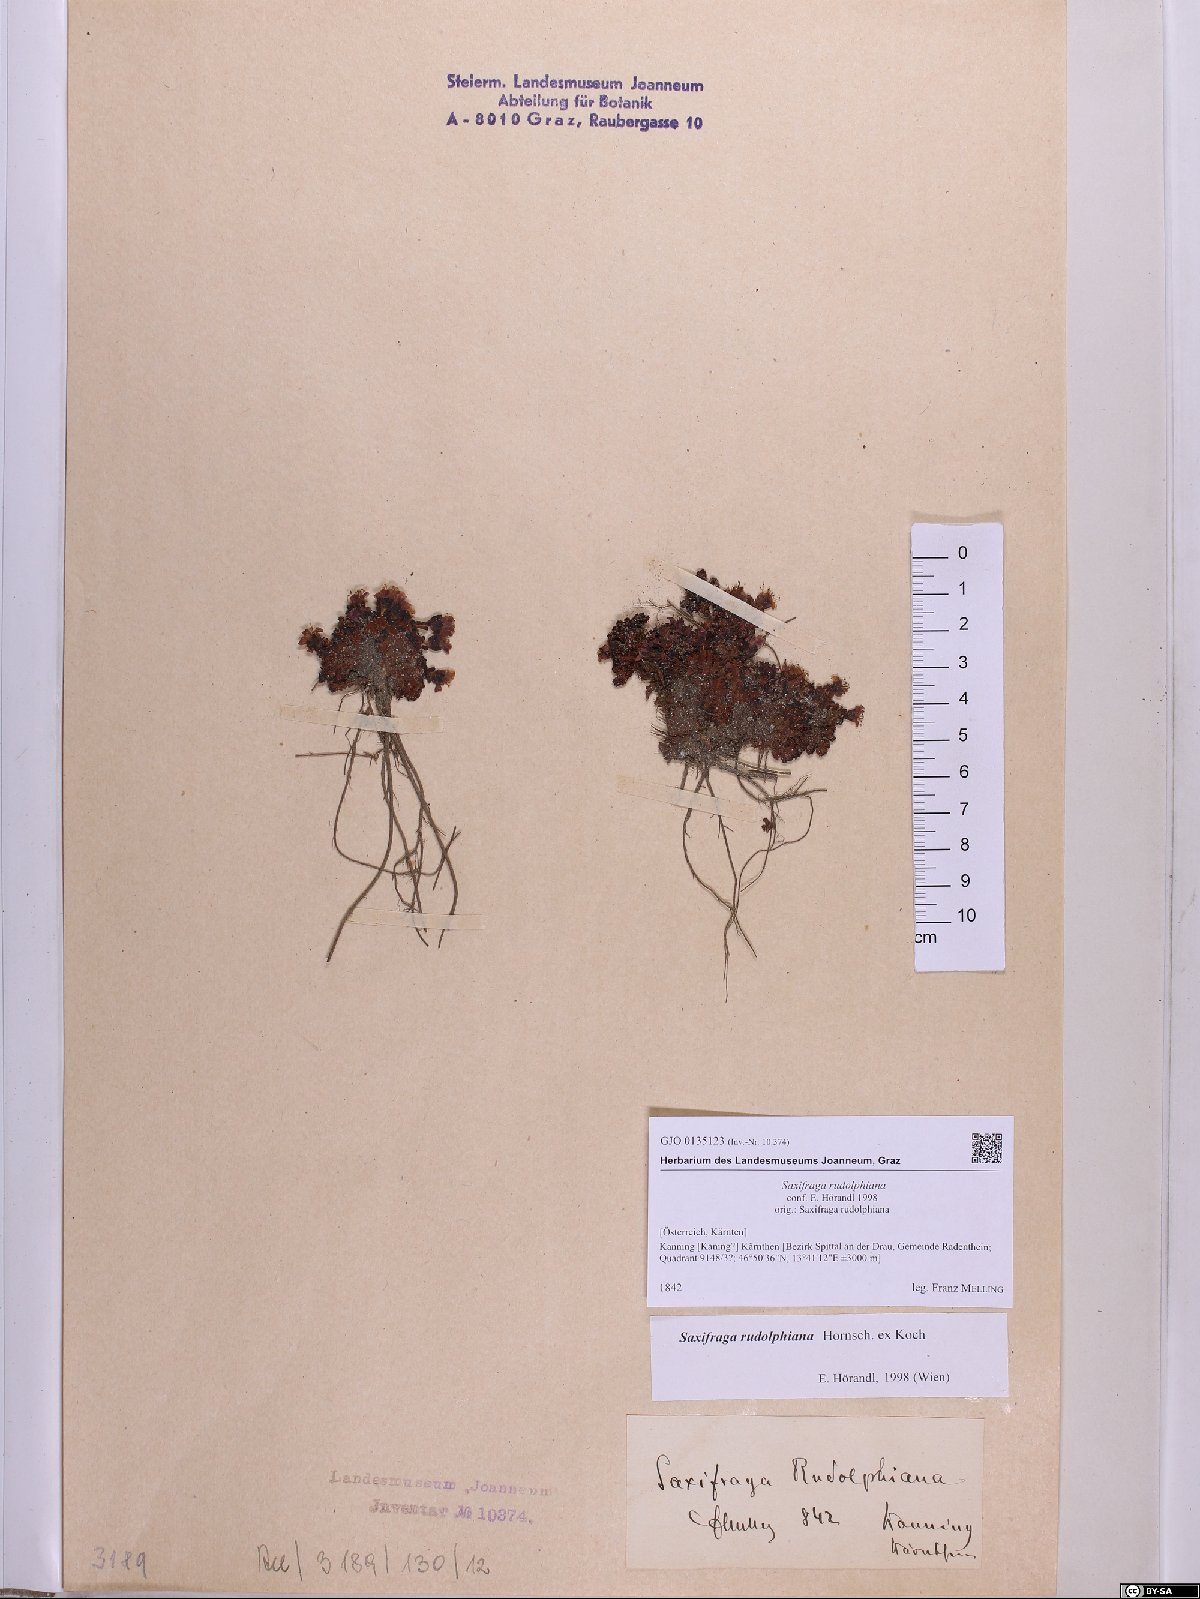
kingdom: Plantae
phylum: Tracheophyta
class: Magnoliopsida
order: Saxifragales
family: Saxifragaceae
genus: Saxifraga
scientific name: Saxifraga oppositifolia
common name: Purple saxifrage
